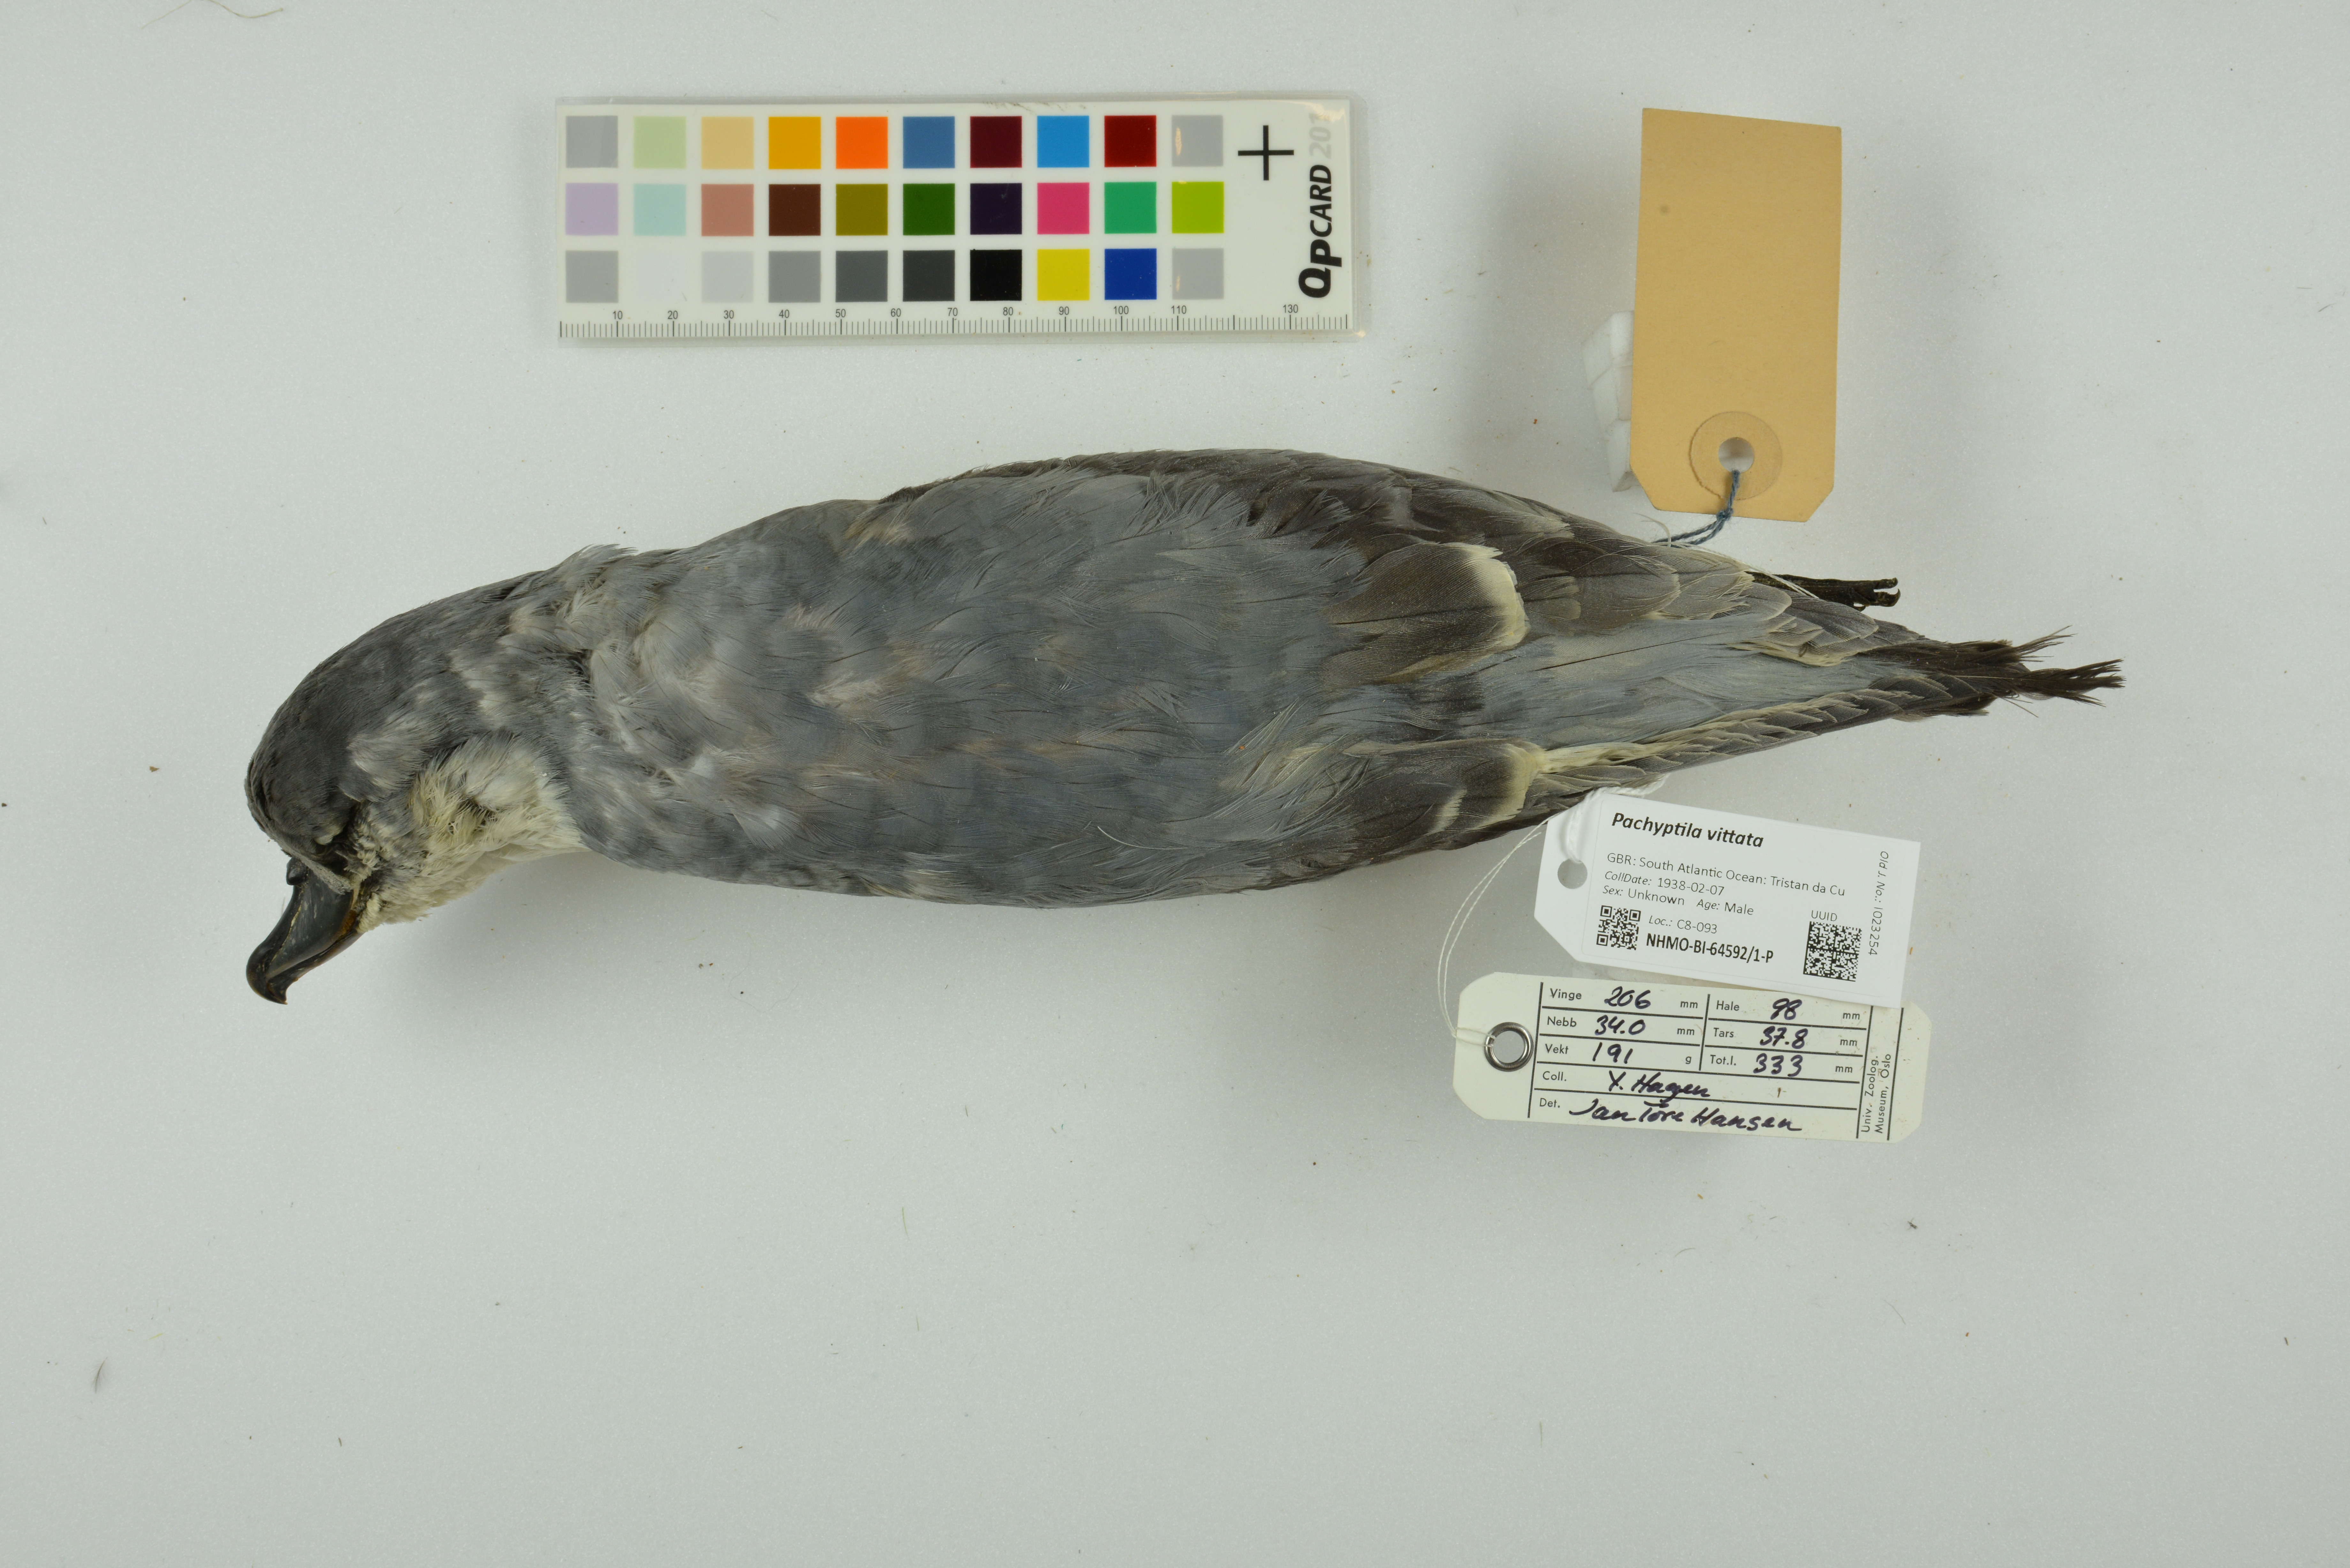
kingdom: Animalia
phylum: Chordata
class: Aves
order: Procellariiformes
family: Procellariidae
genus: Pachyptila
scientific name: Pachyptila vittata
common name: Broad-billed prion
